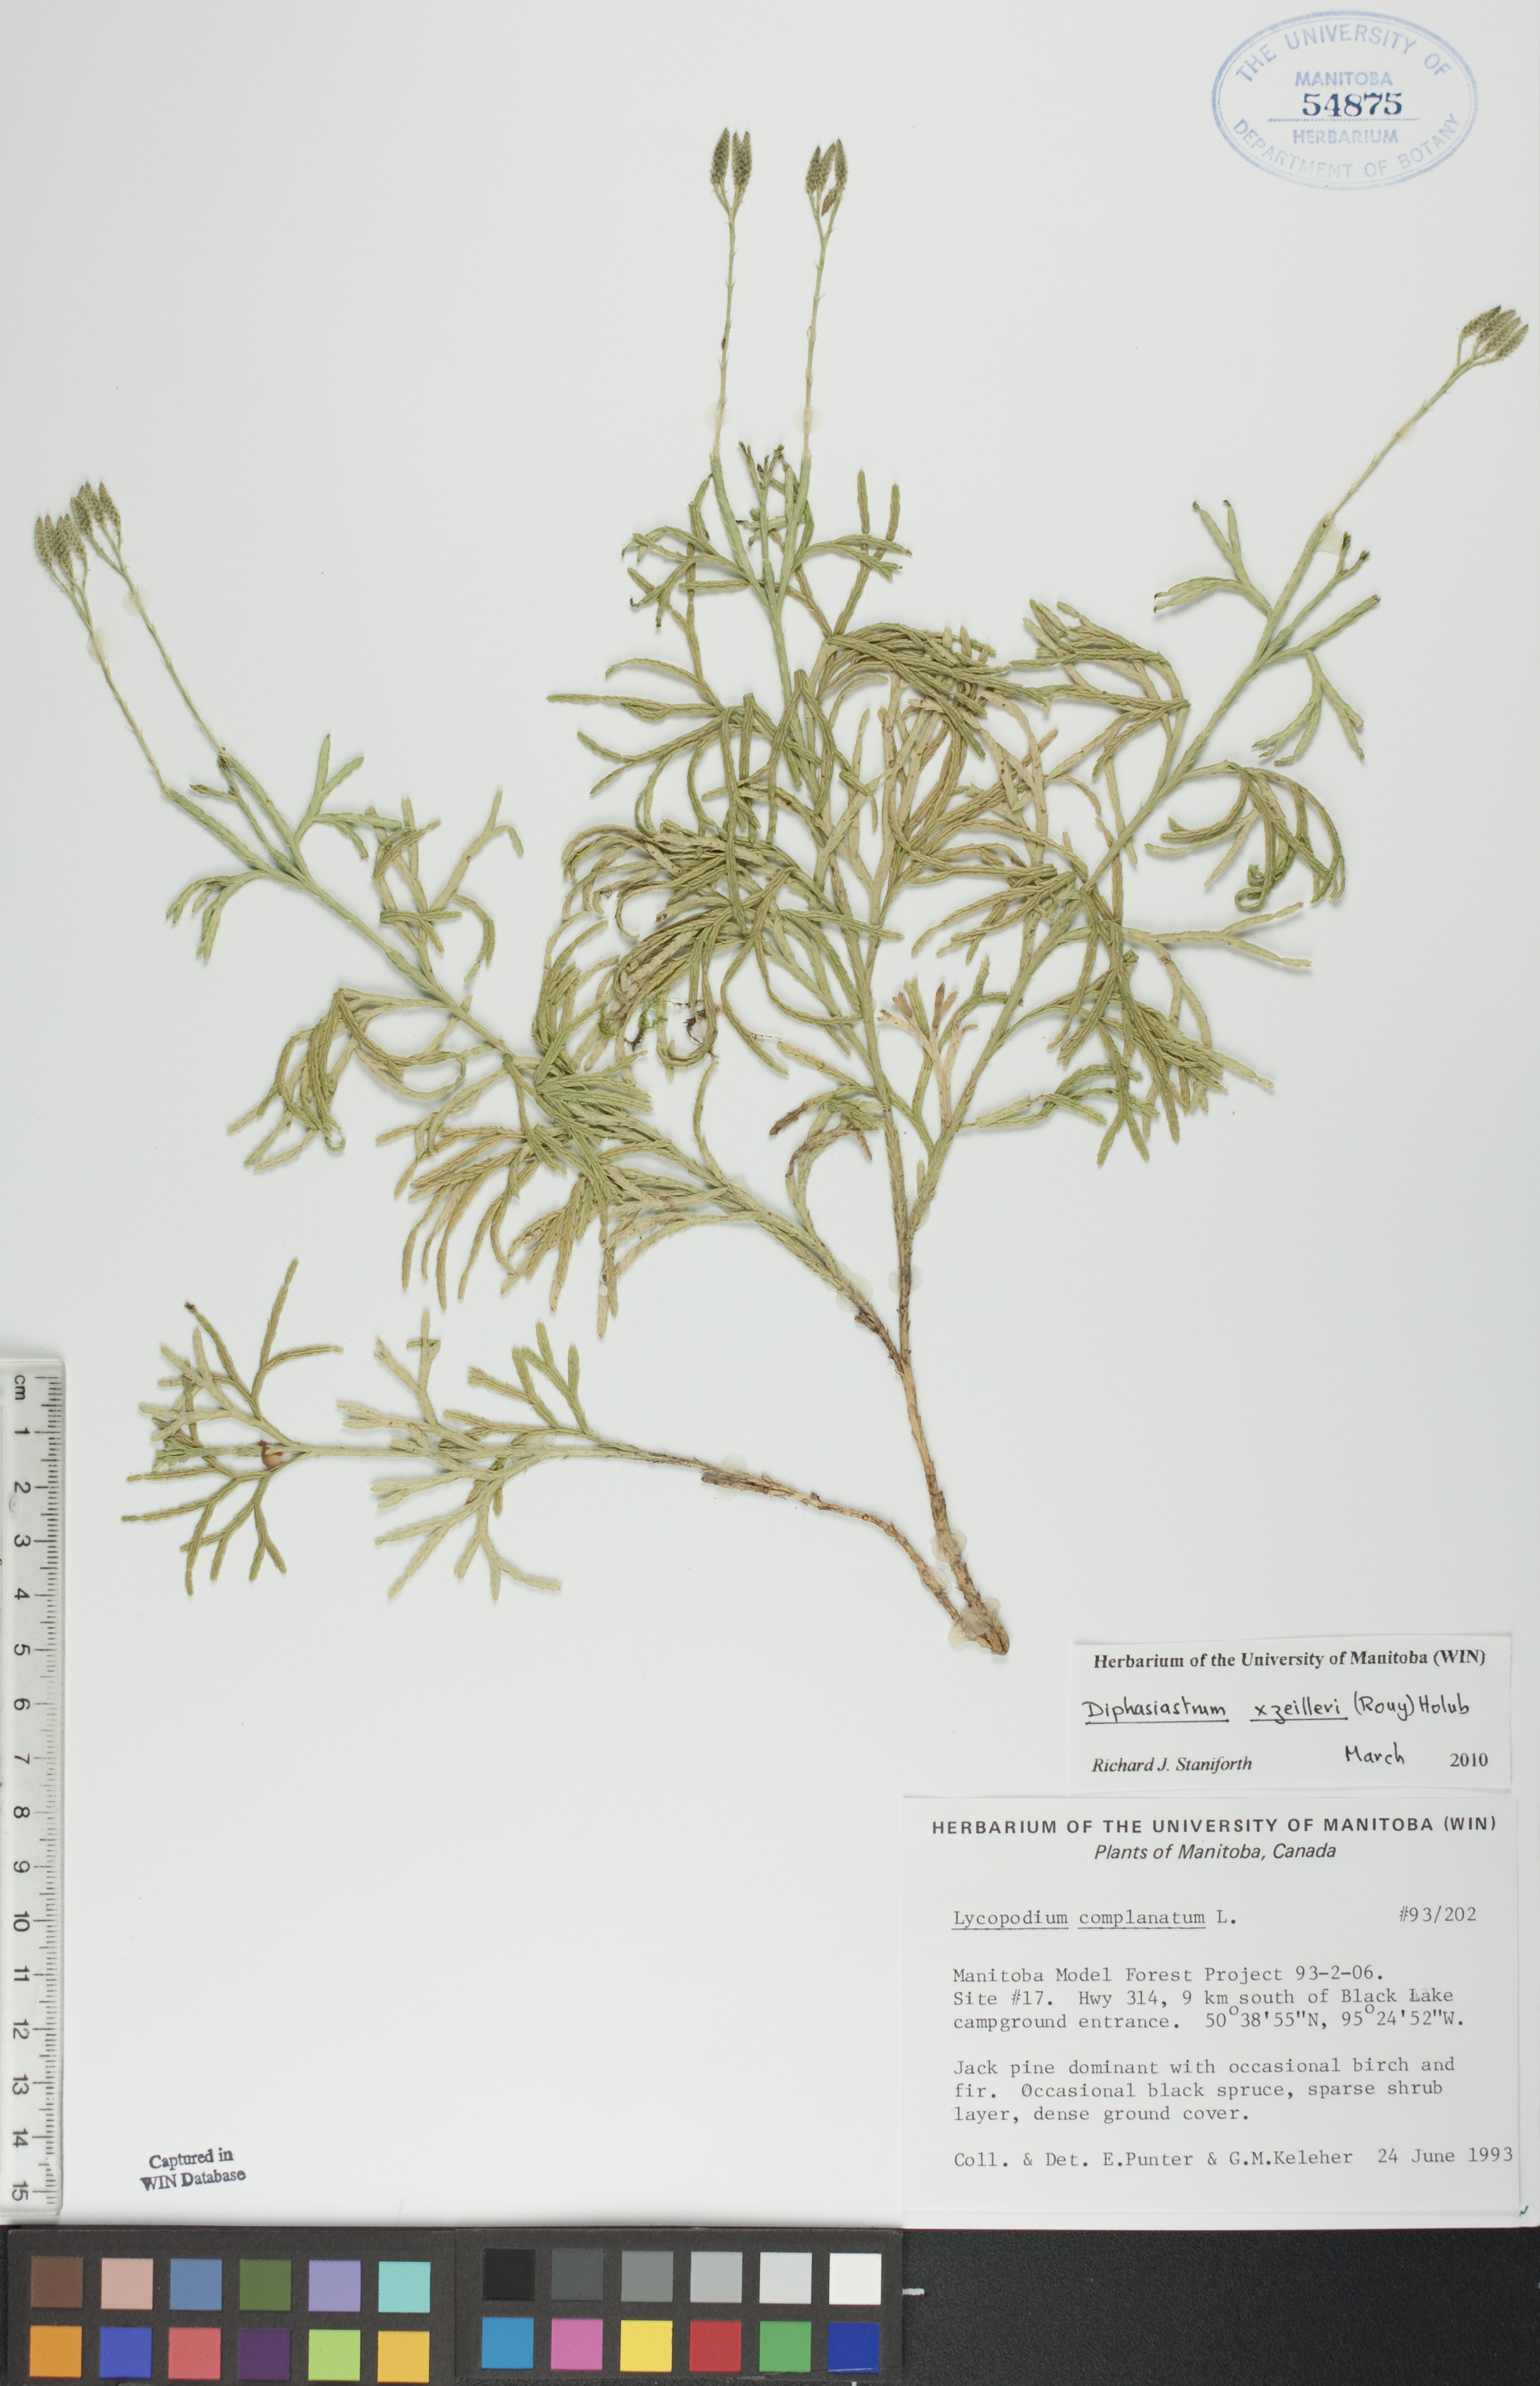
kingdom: Plantae
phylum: Tracheophyta
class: Lycopodiopsida
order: Lycopodiales
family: Lycopodiaceae
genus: Diphasiastrum
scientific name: Diphasiastrum zeilleri
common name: Zeiller's clubmoss
